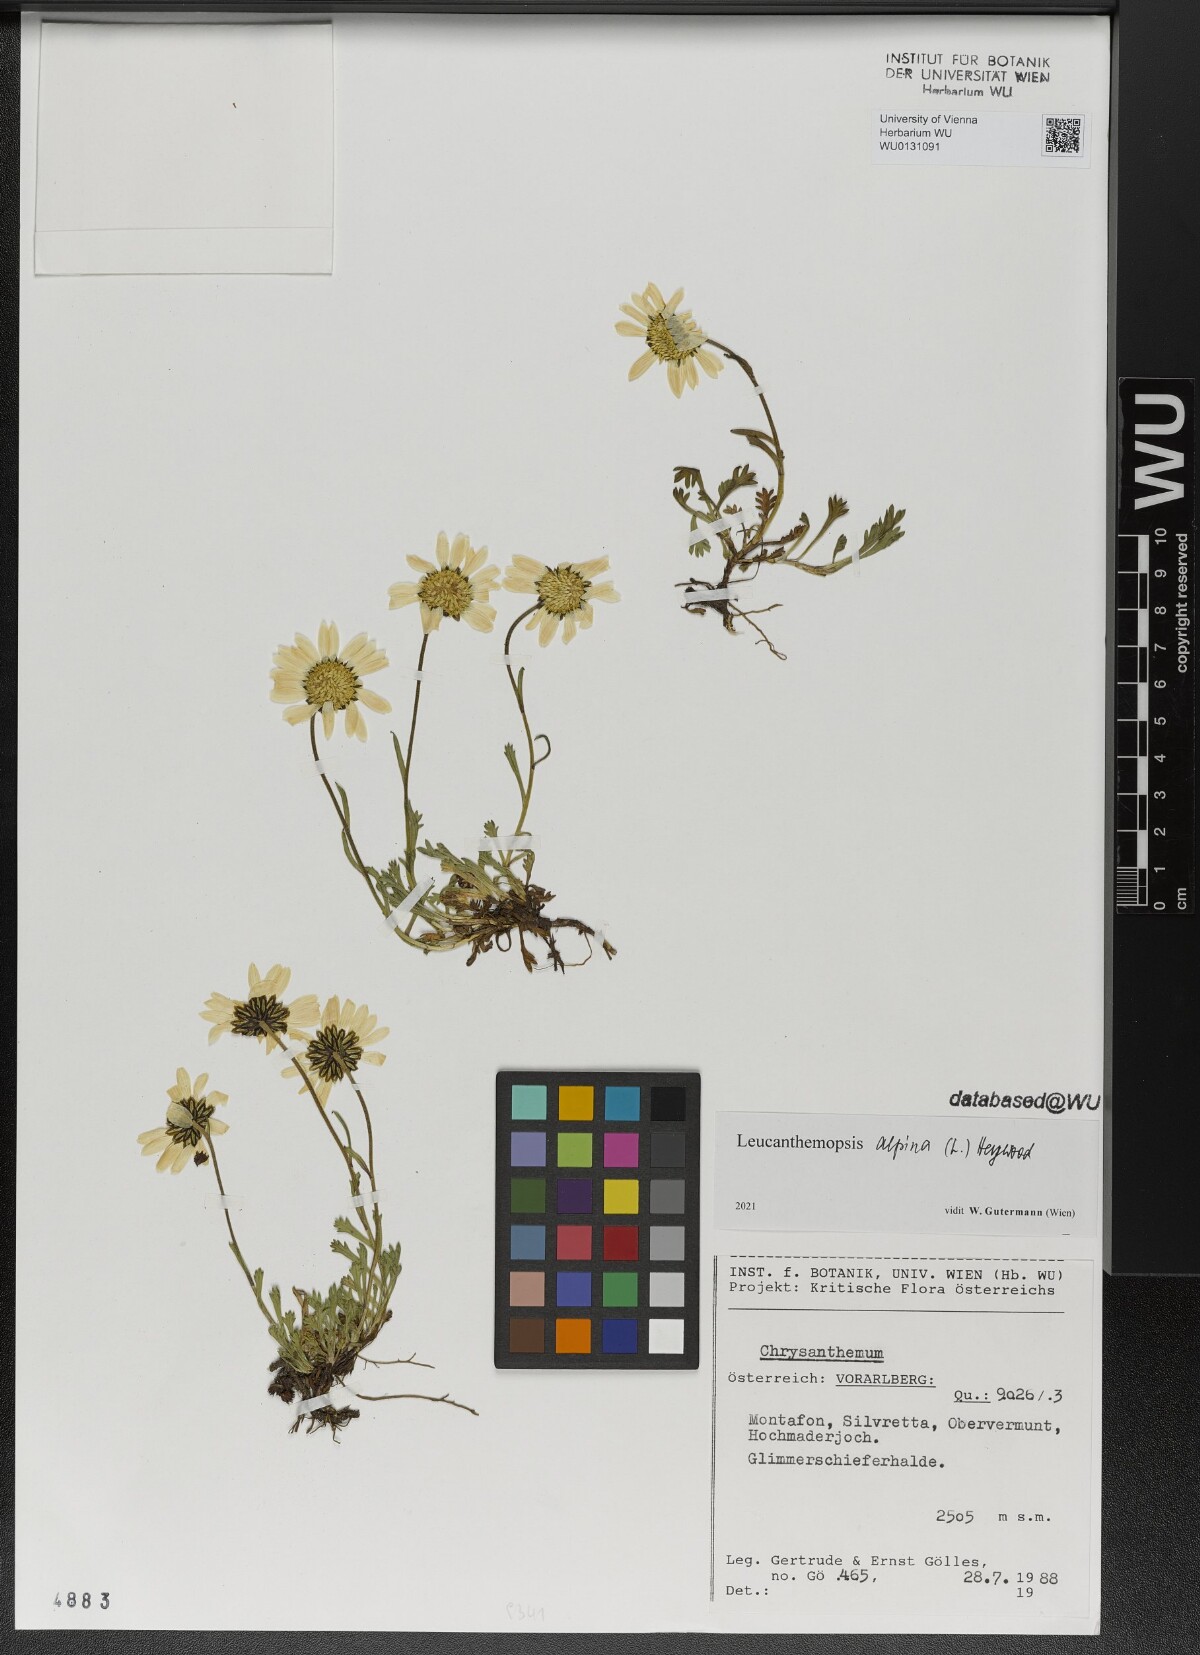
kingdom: Plantae
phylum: Tracheophyta
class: Magnoliopsida
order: Asterales
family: Asteraceae
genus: Leucanthemopsis
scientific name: Leucanthemopsis alpina
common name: Alpine moon daisy
